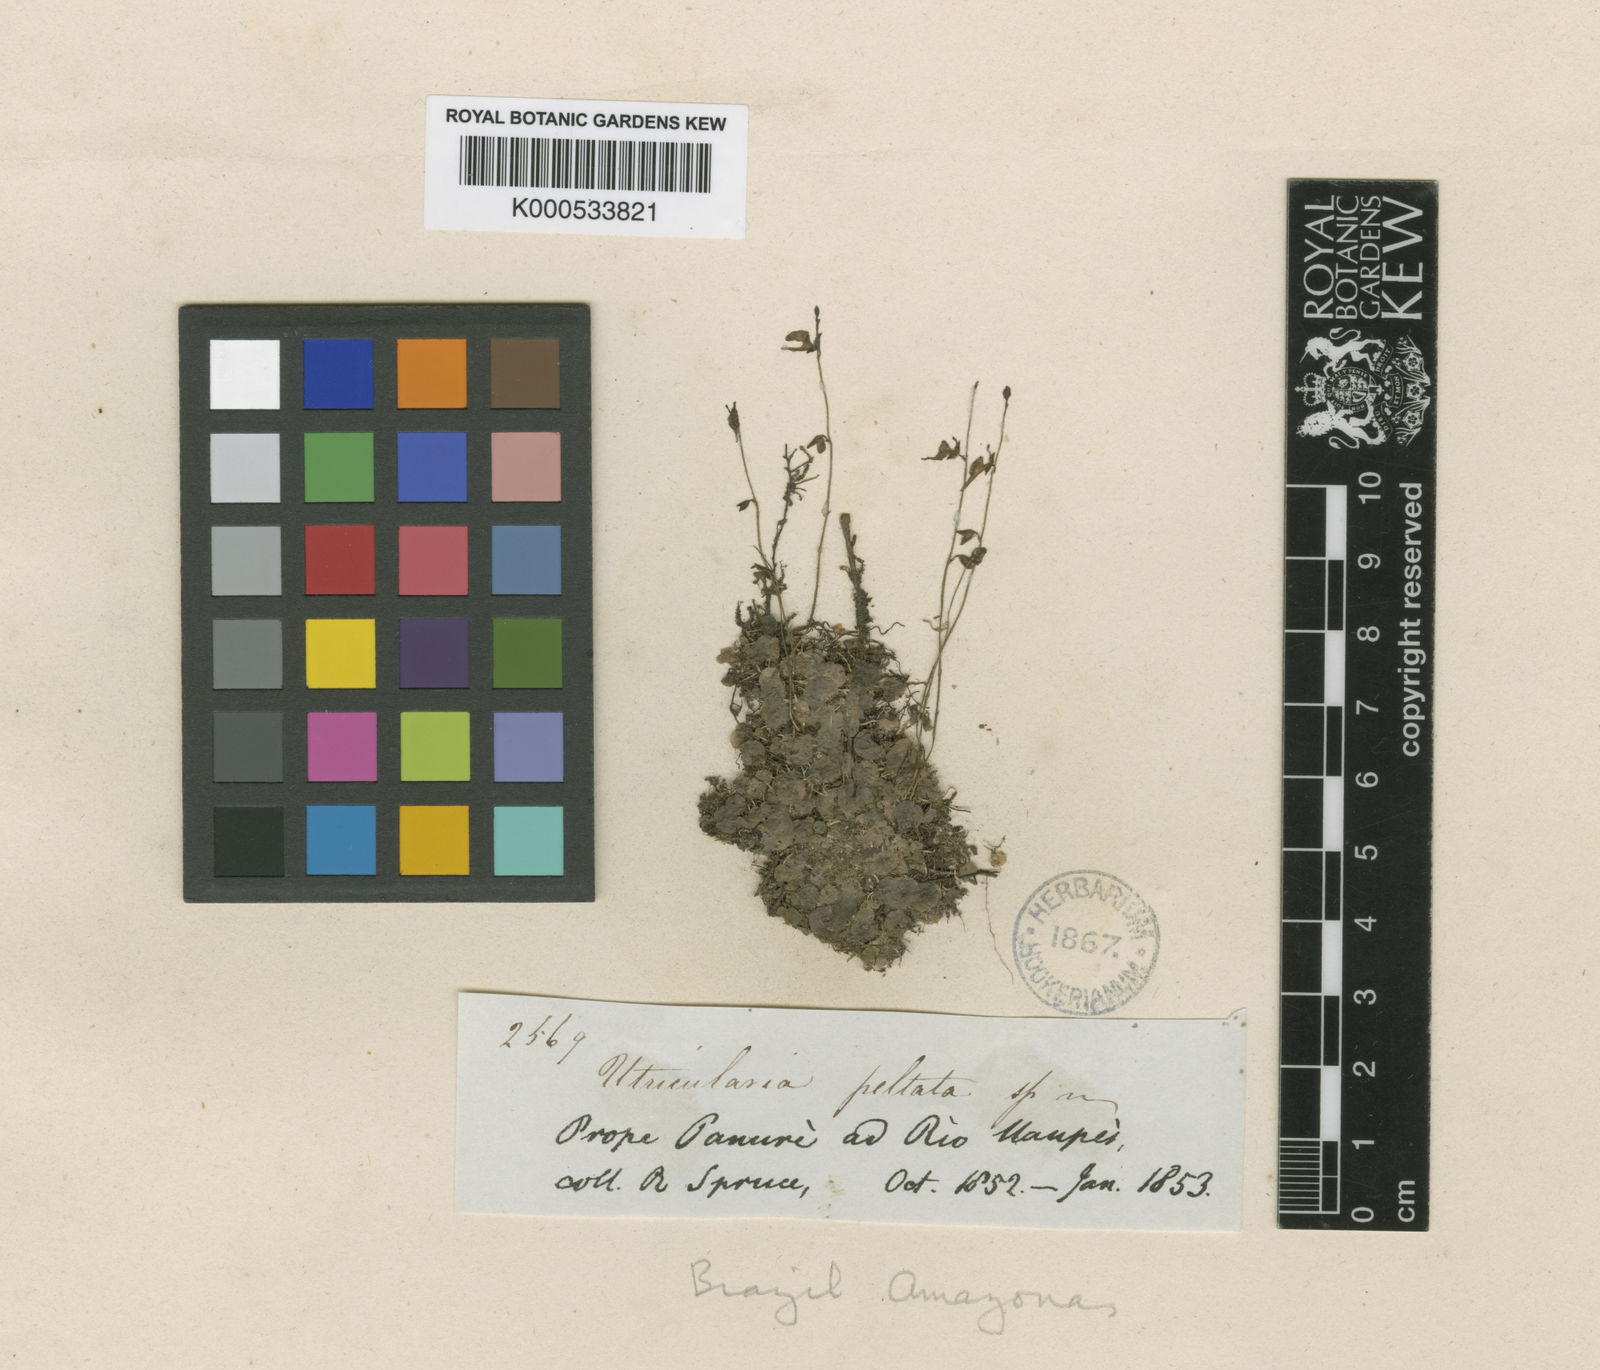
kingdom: Plantae
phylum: Tracheophyta
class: Magnoliopsida
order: Lamiales
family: Lentibulariaceae
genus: Utricularia
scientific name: Utricularia pubescens
